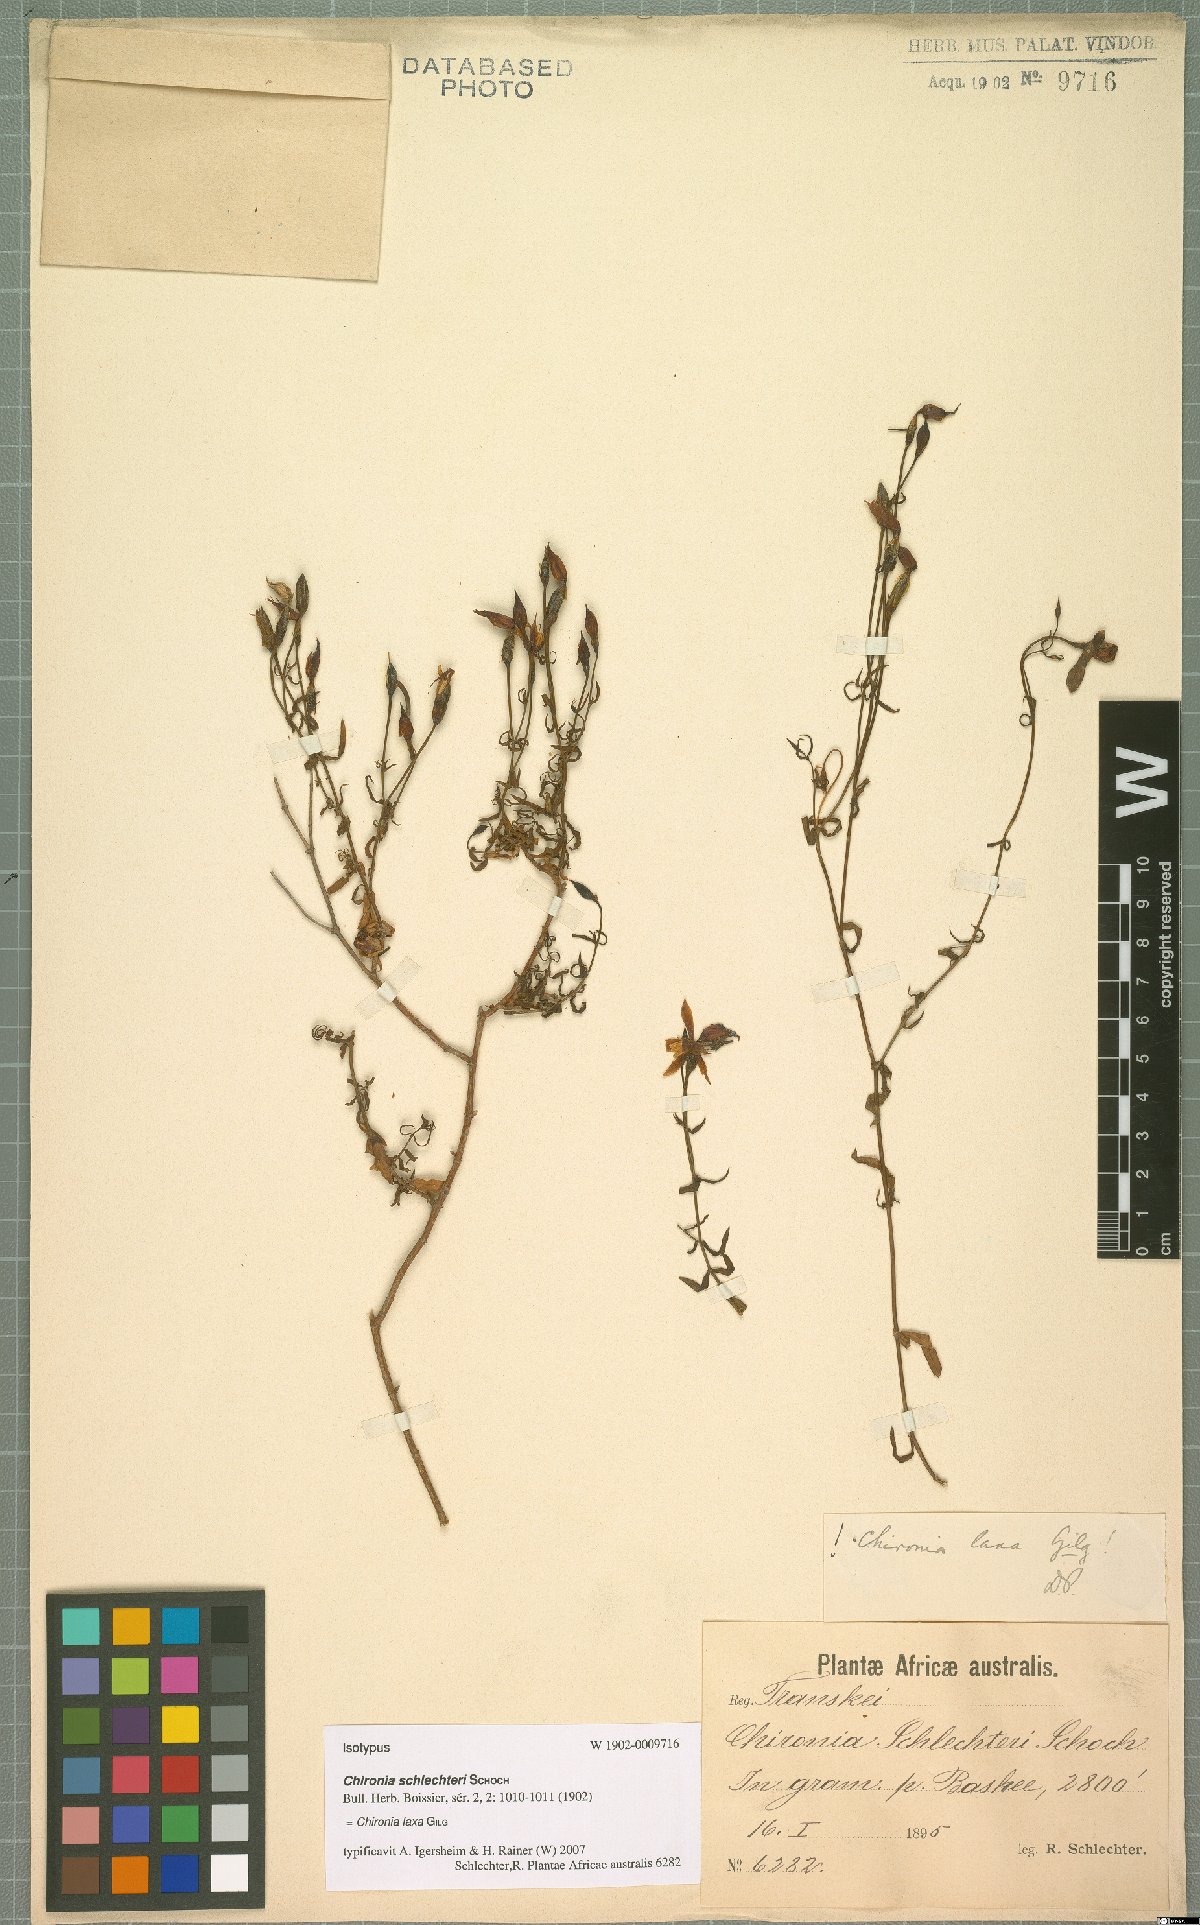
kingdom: Plantae
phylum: Tracheophyta
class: Magnoliopsida
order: Gentianales
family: Gentianaceae
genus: Chironia
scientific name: Chironia laxa
